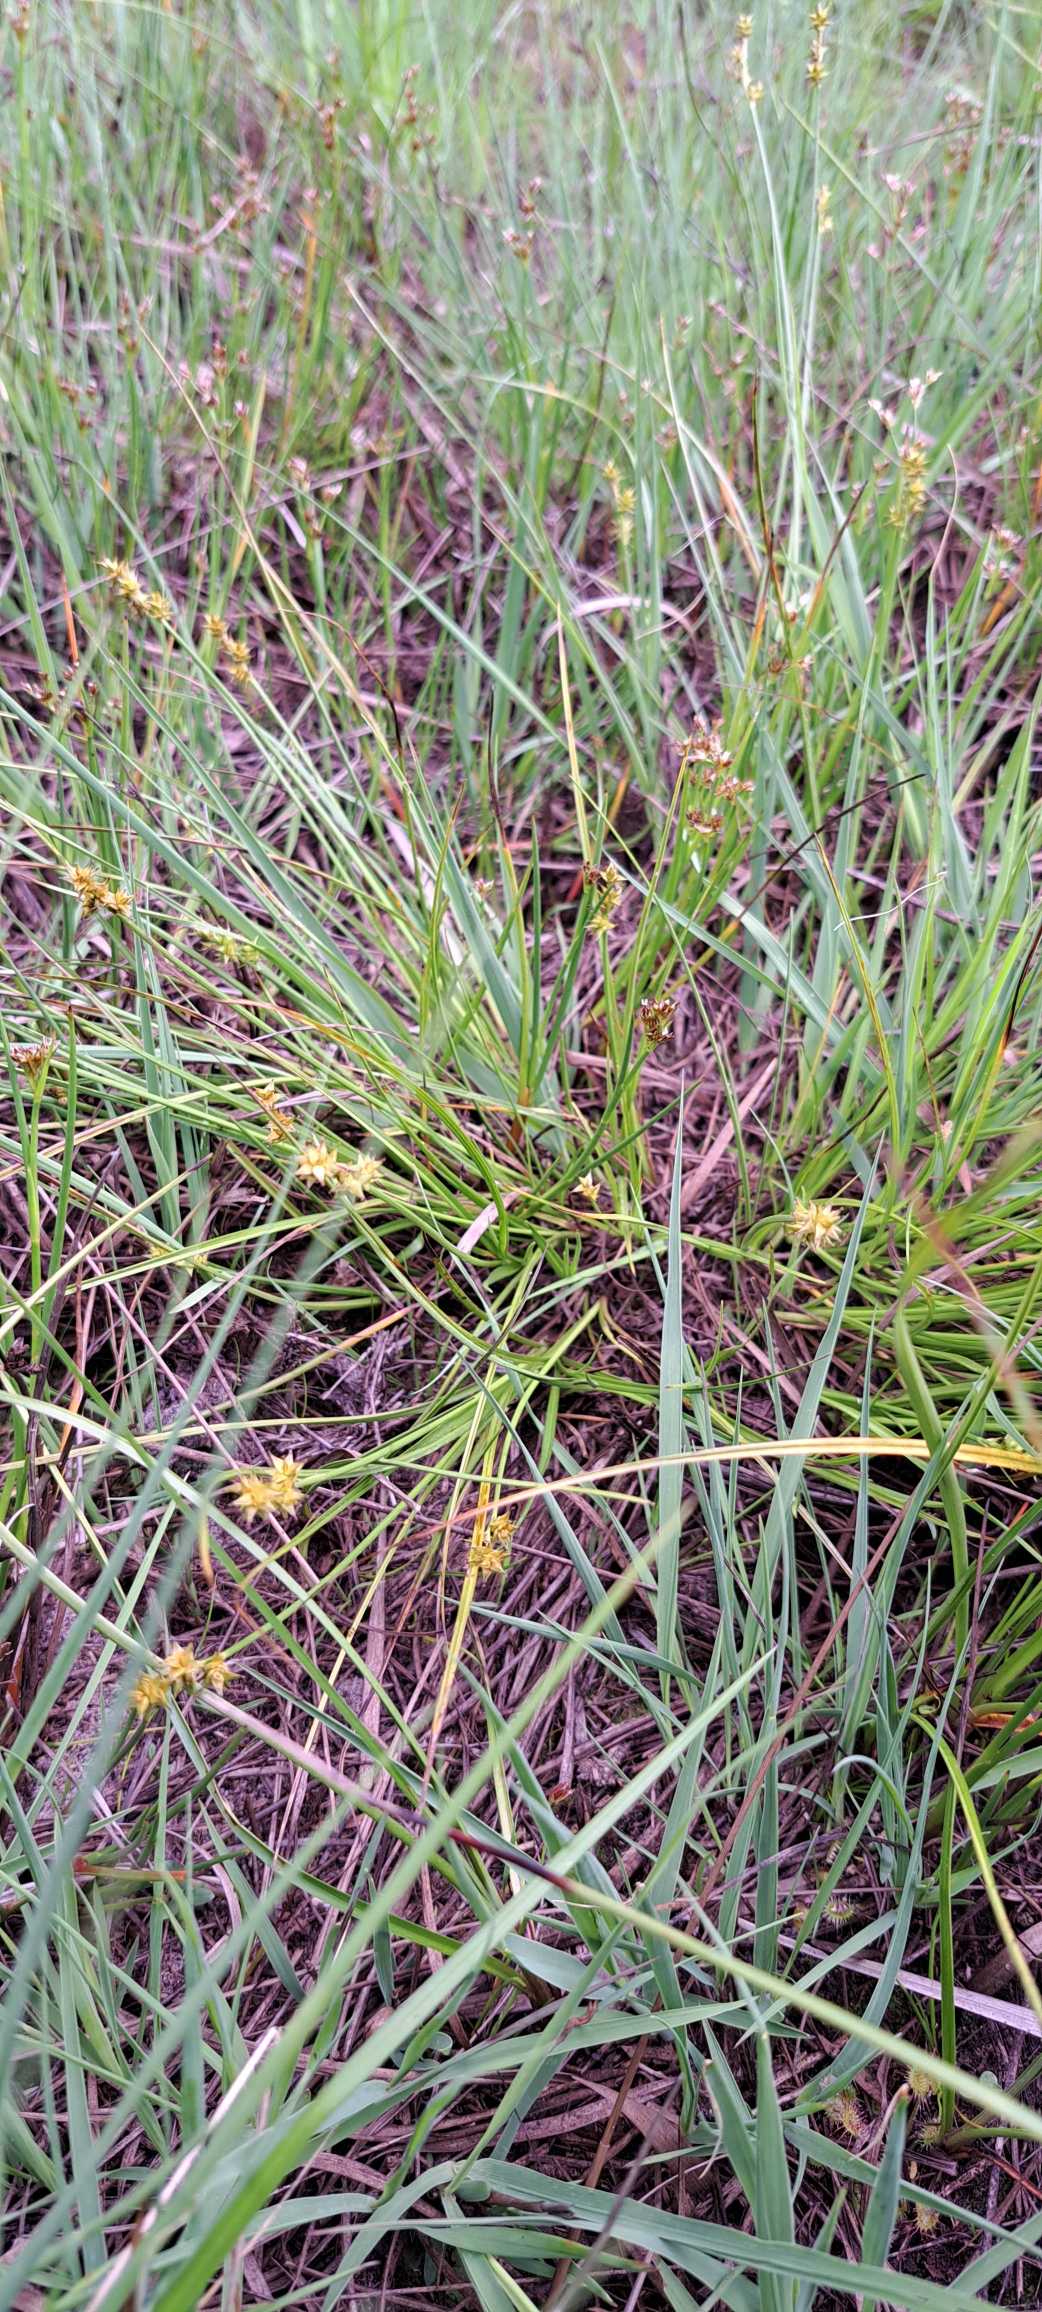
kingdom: Plantae
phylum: Tracheophyta
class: Liliopsida
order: Poales
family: Cyperaceae
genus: Carex
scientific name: Carex echinata
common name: Stjerne-star
